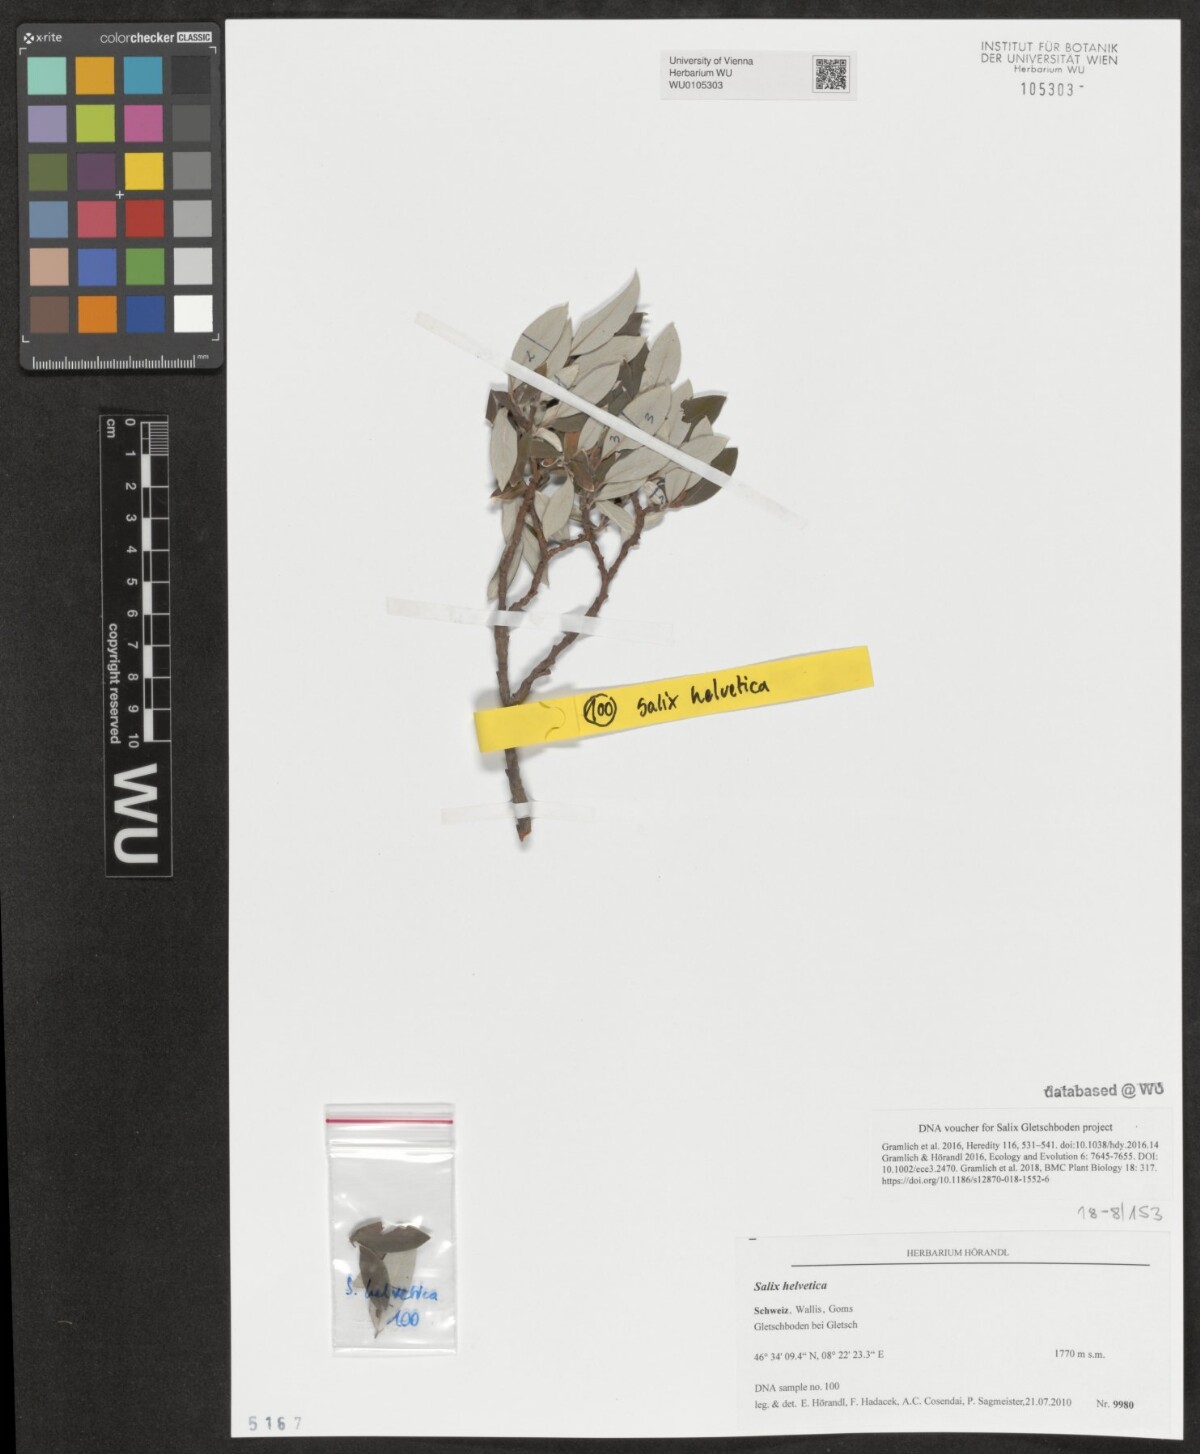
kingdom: Plantae
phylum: Tracheophyta
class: Magnoliopsida
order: Malpighiales
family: Salicaceae
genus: Salix
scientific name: Salix helvetica
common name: Swiss willow
